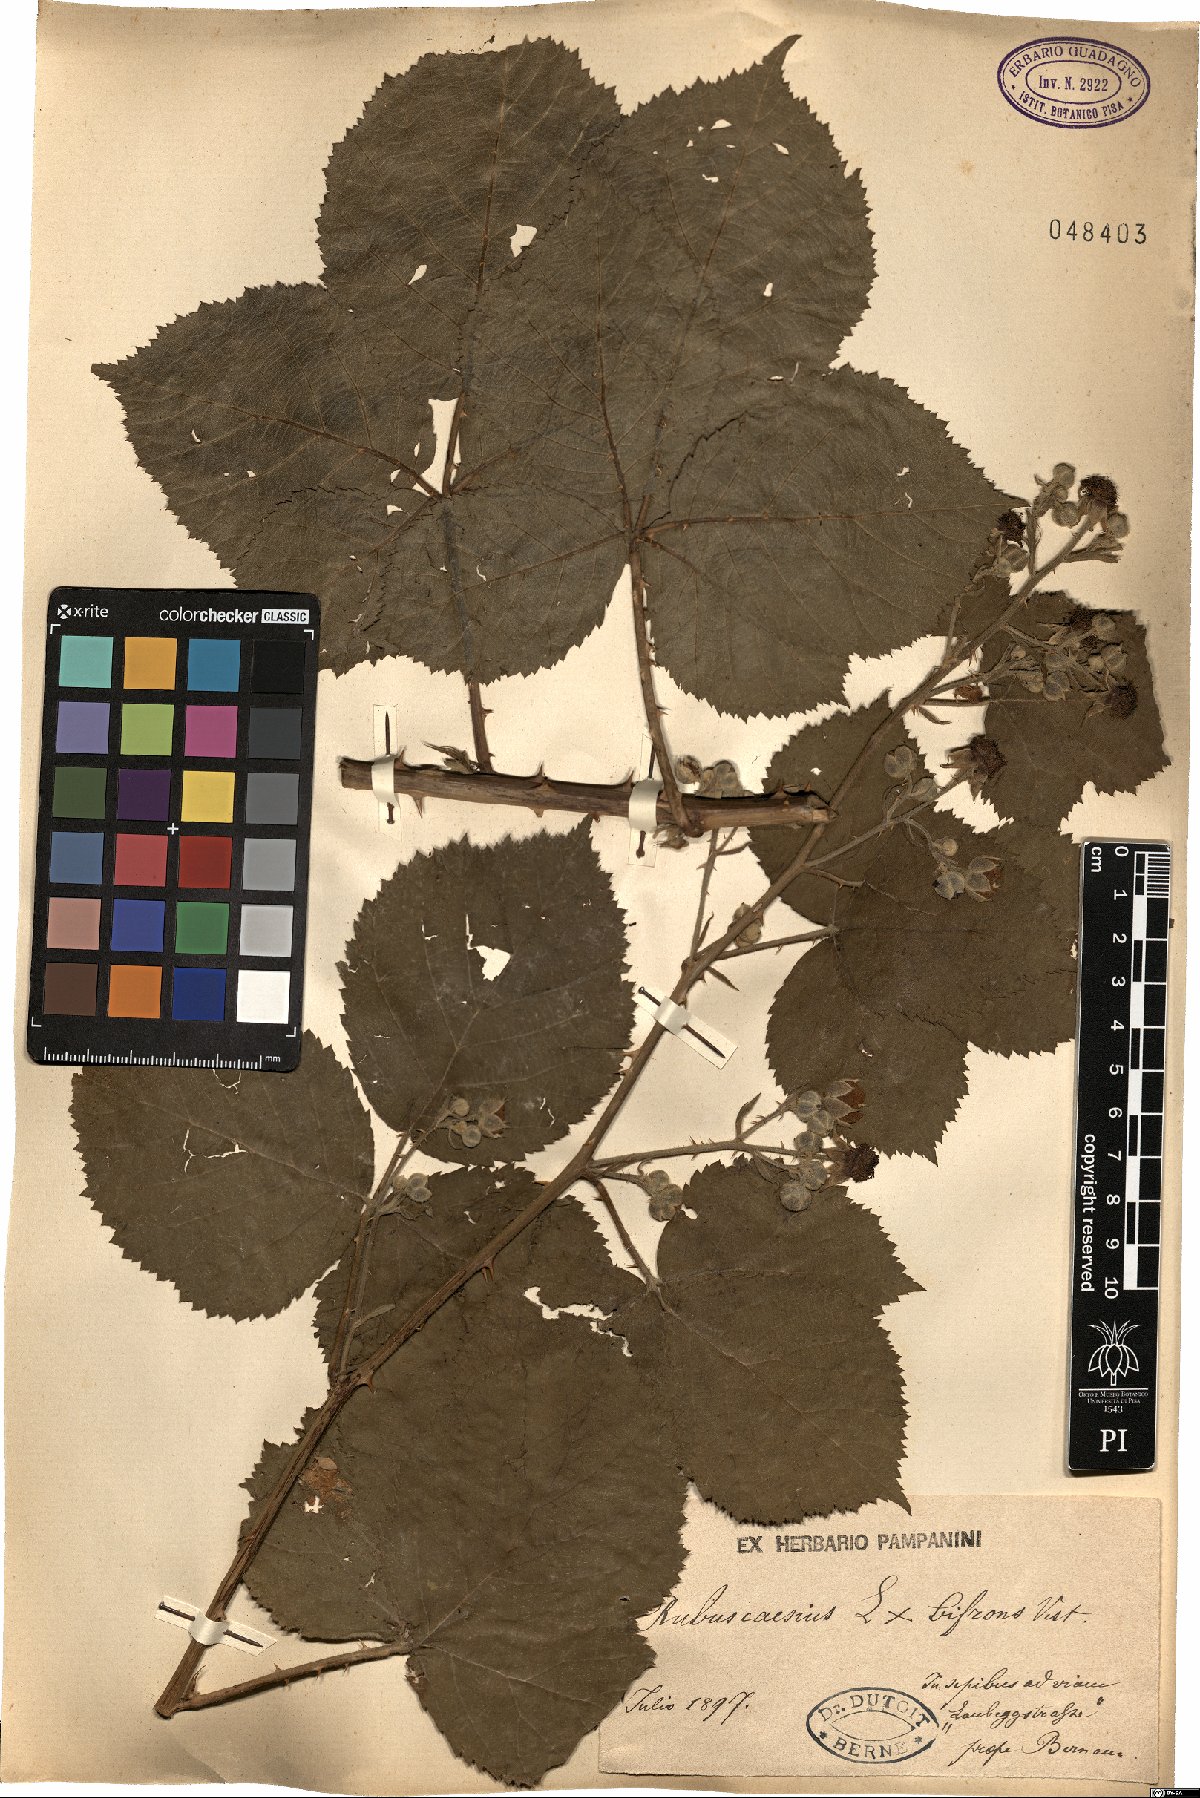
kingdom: Plantae
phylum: Tracheophyta
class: Magnoliopsida
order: Rosales
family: Rosaceae
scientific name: Rosaceae
